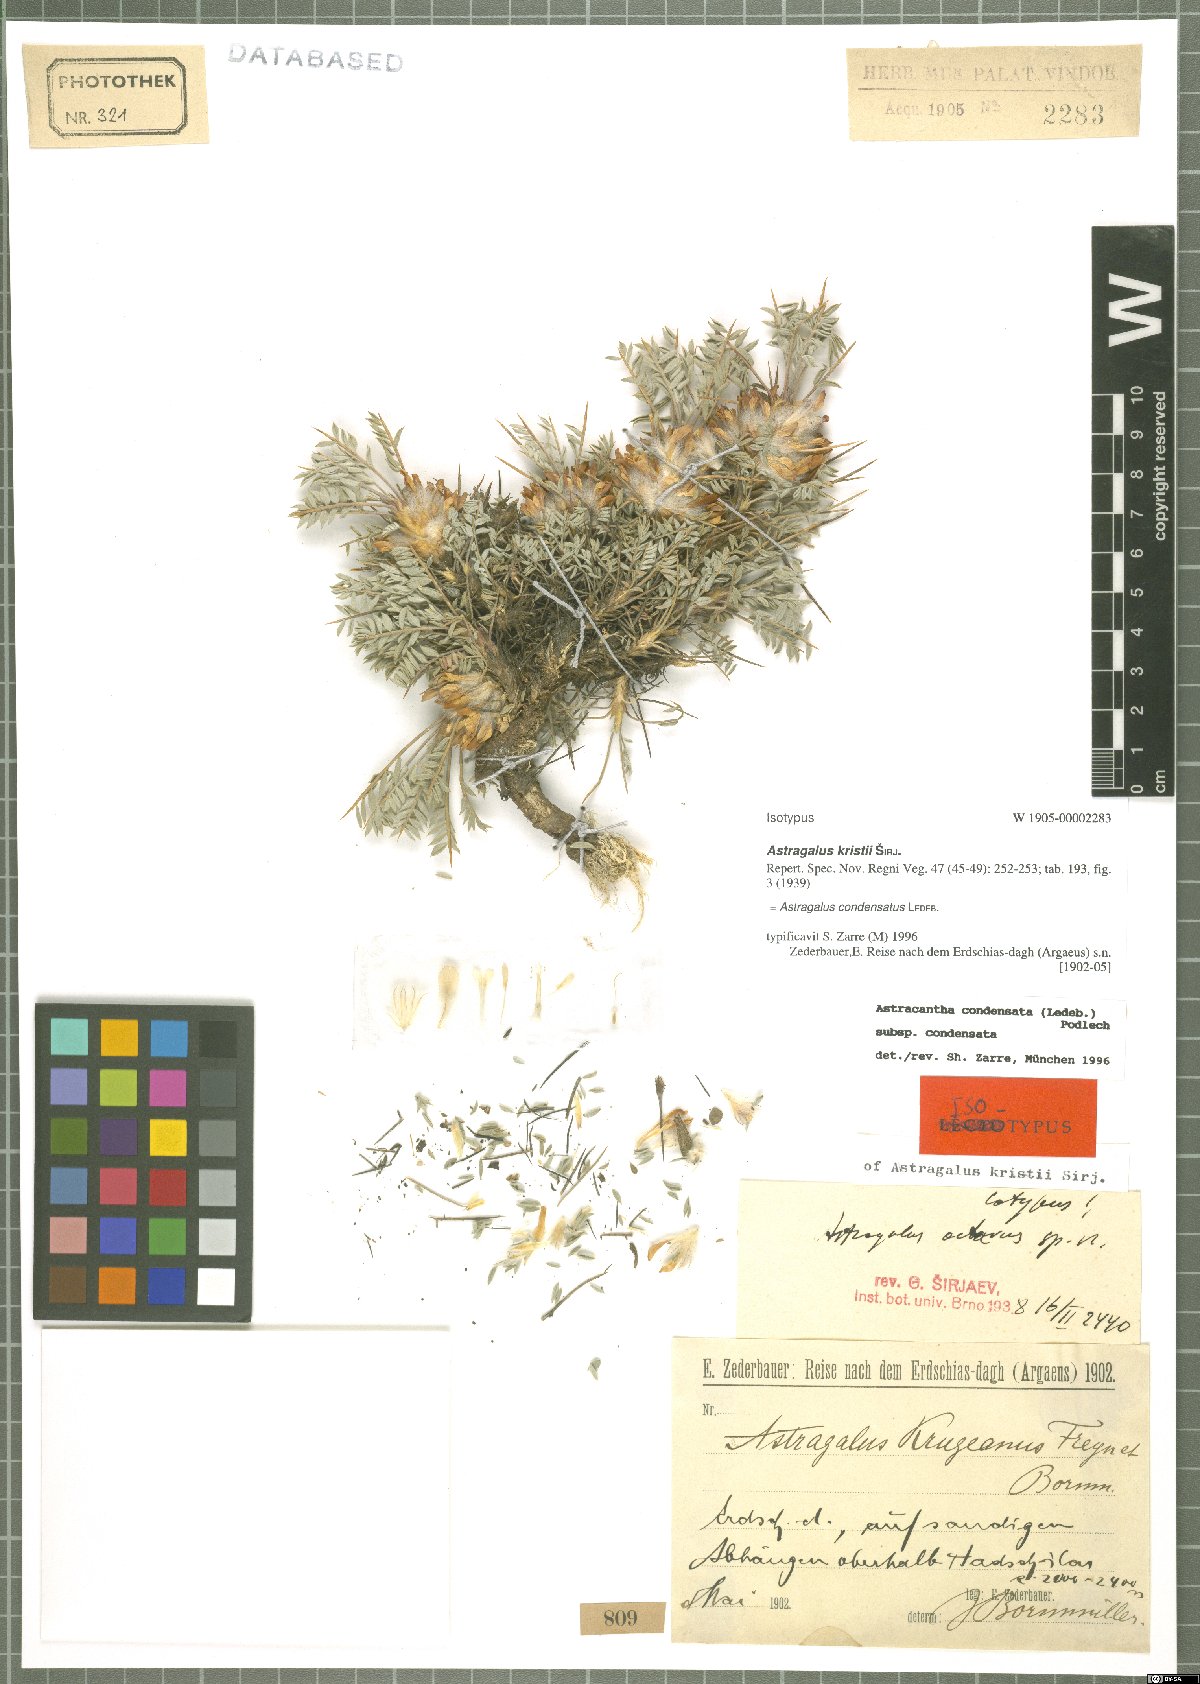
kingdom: Plantae
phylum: Tracheophyta
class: Magnoliopsida
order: Fabales
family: Fabaceae
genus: Astragalus
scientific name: Astragalus condensatus
